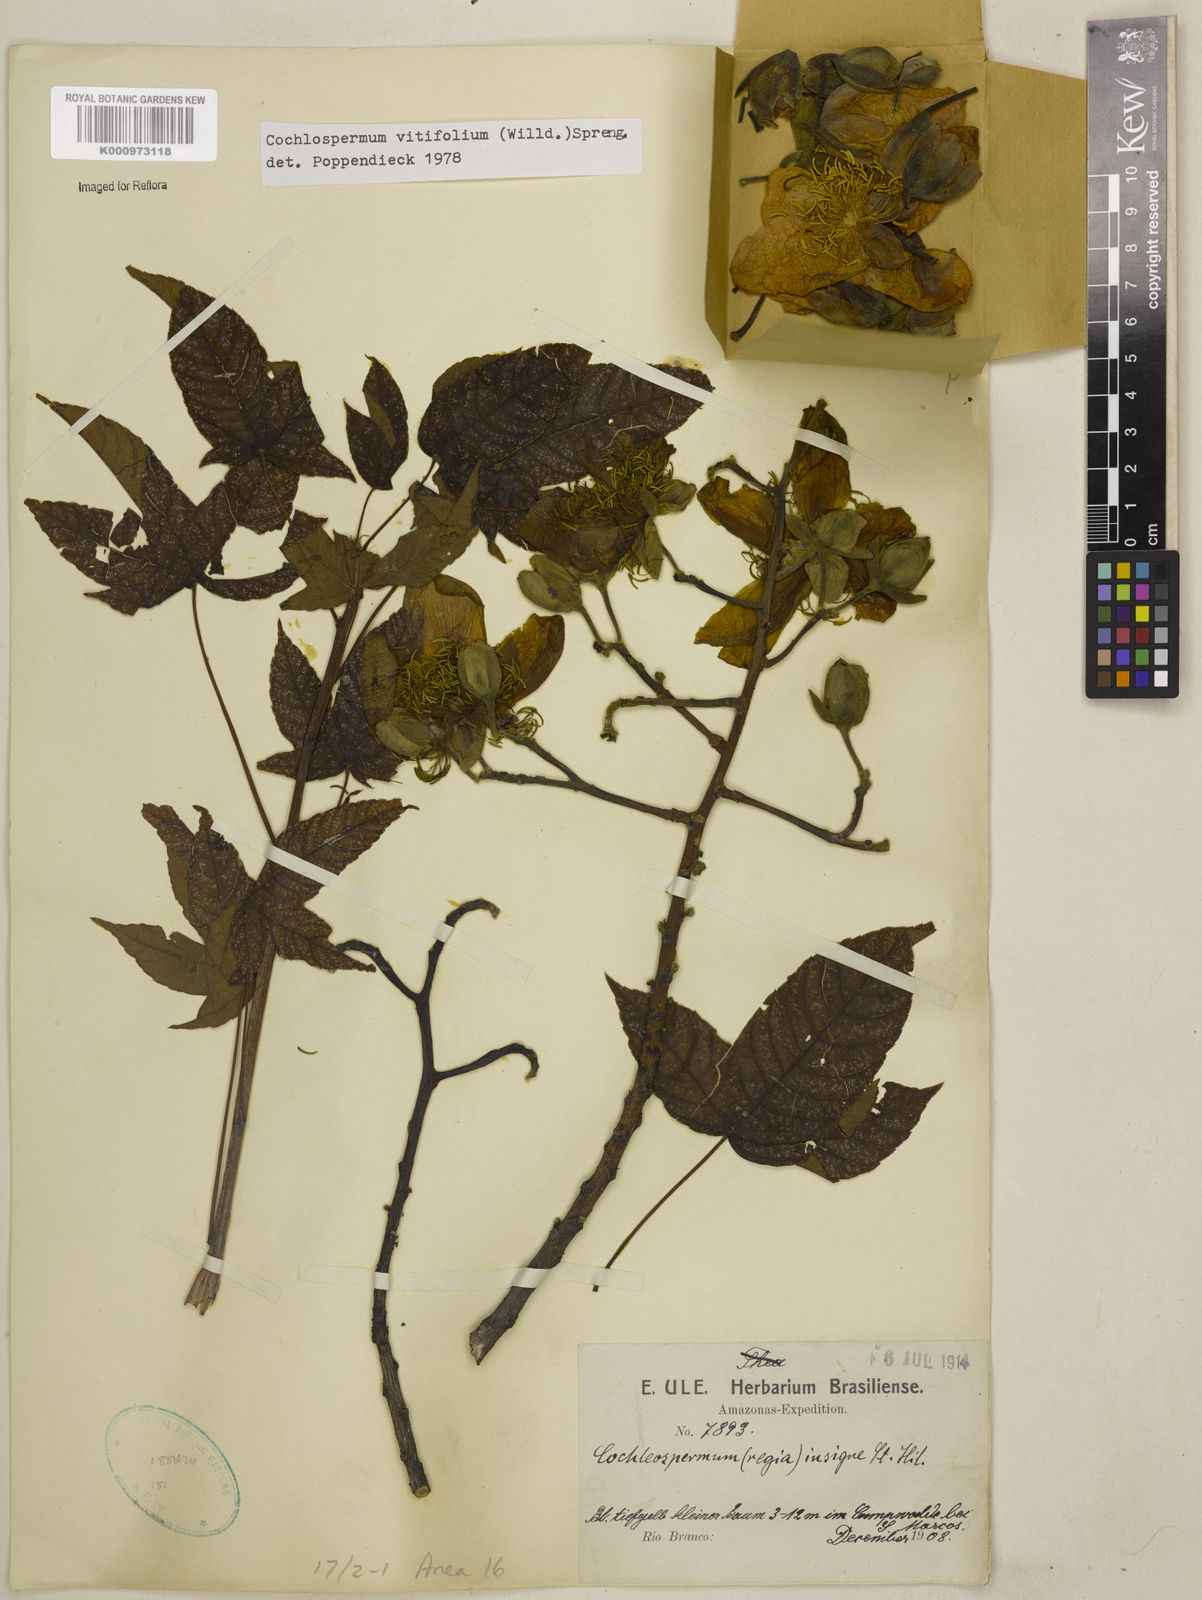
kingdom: Plantae
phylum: Tracheophyta
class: Magnoliopsida
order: Malvales
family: Cochlospermaceae
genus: Cochlospermum
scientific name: Cochlospermum regium
